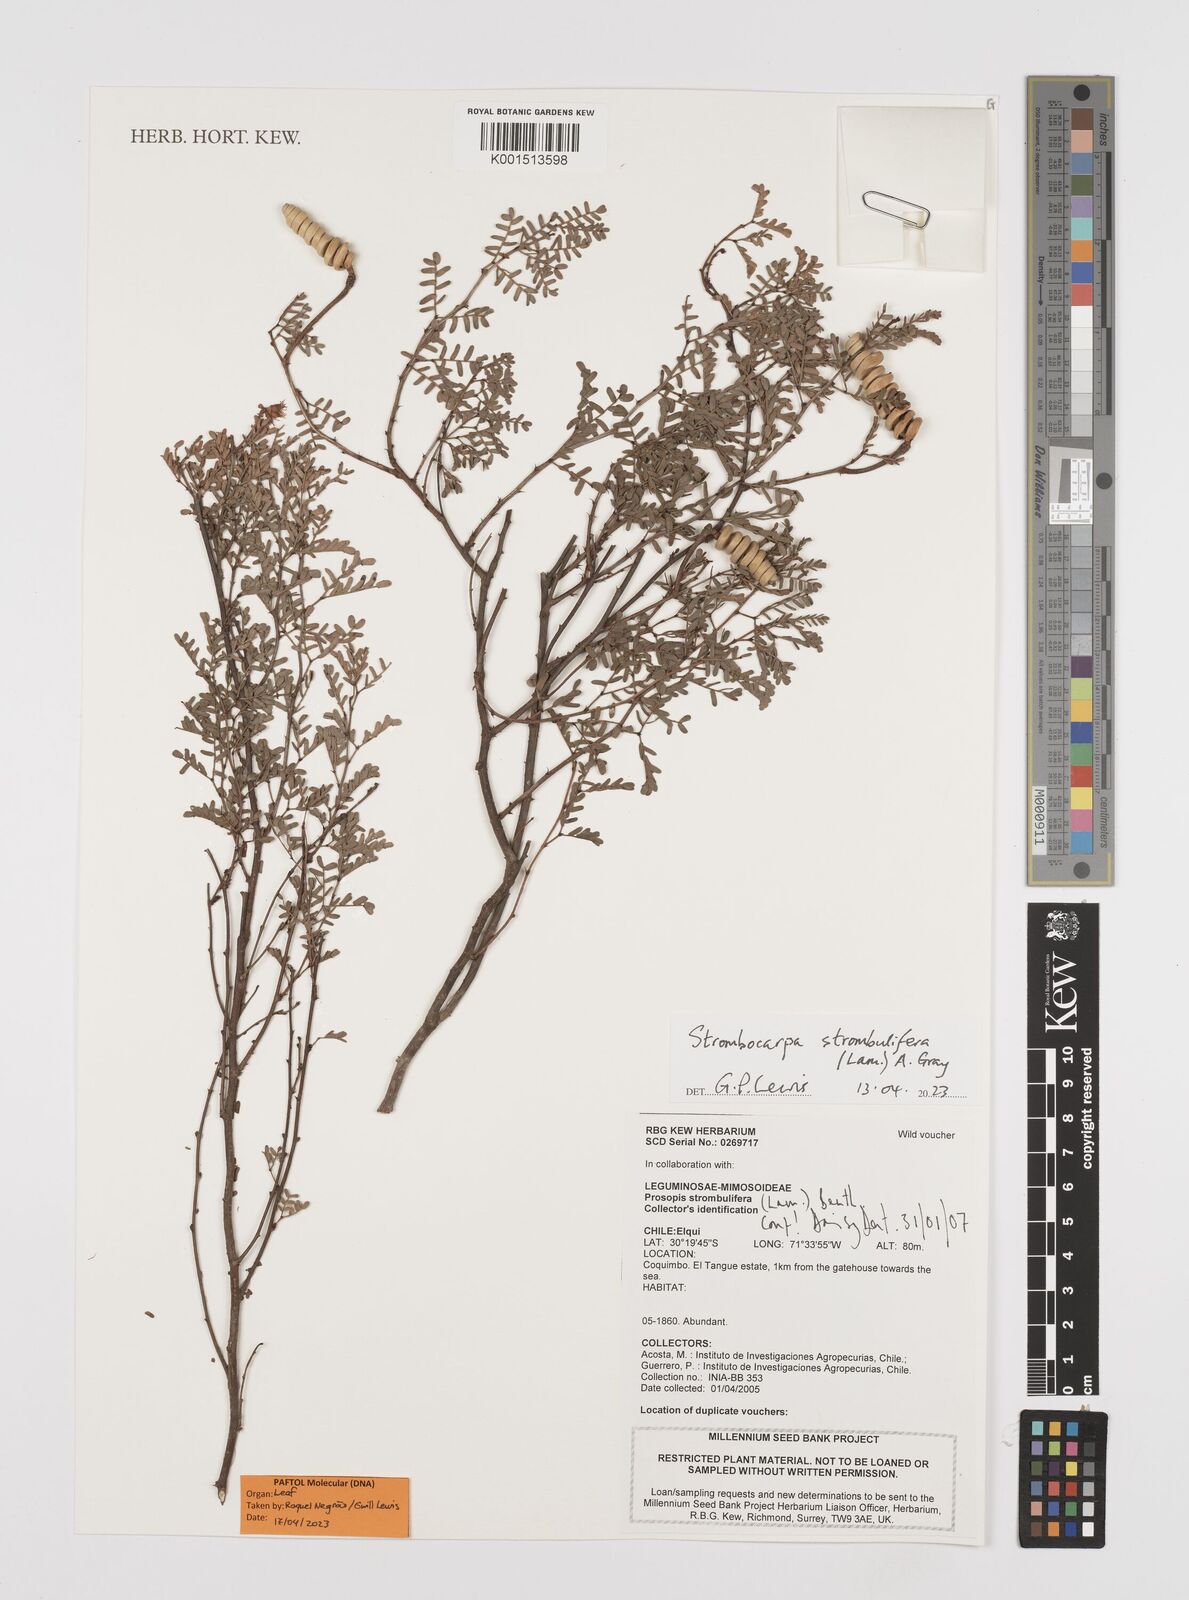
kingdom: Plantae
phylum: Tracheophyta
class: Magnoliopsida
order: Fabales
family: Fabaceae
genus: Prosopis
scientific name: Prosopis strombulifera
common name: Creeping mesquite
